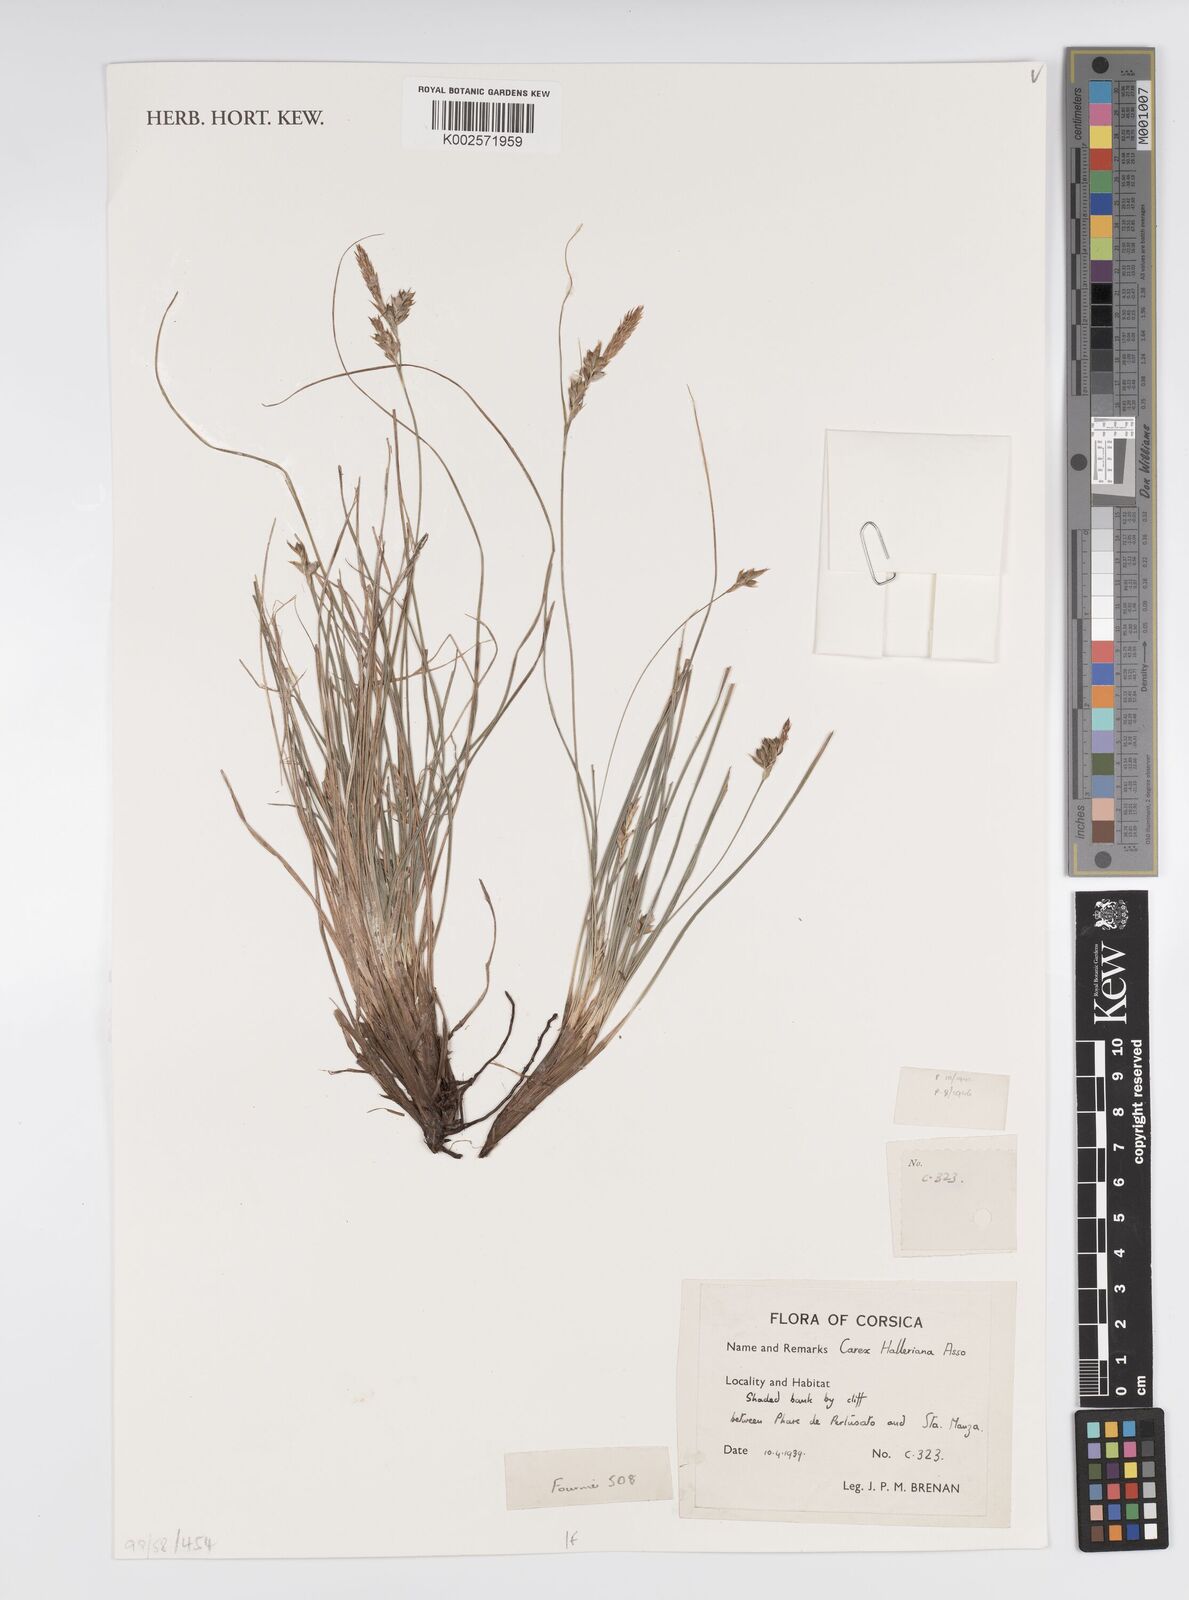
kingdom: Plantae
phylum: Tracheophyta
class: Liliopsida
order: Poales
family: Cyperaceae
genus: Carex
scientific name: Carex halleriana
